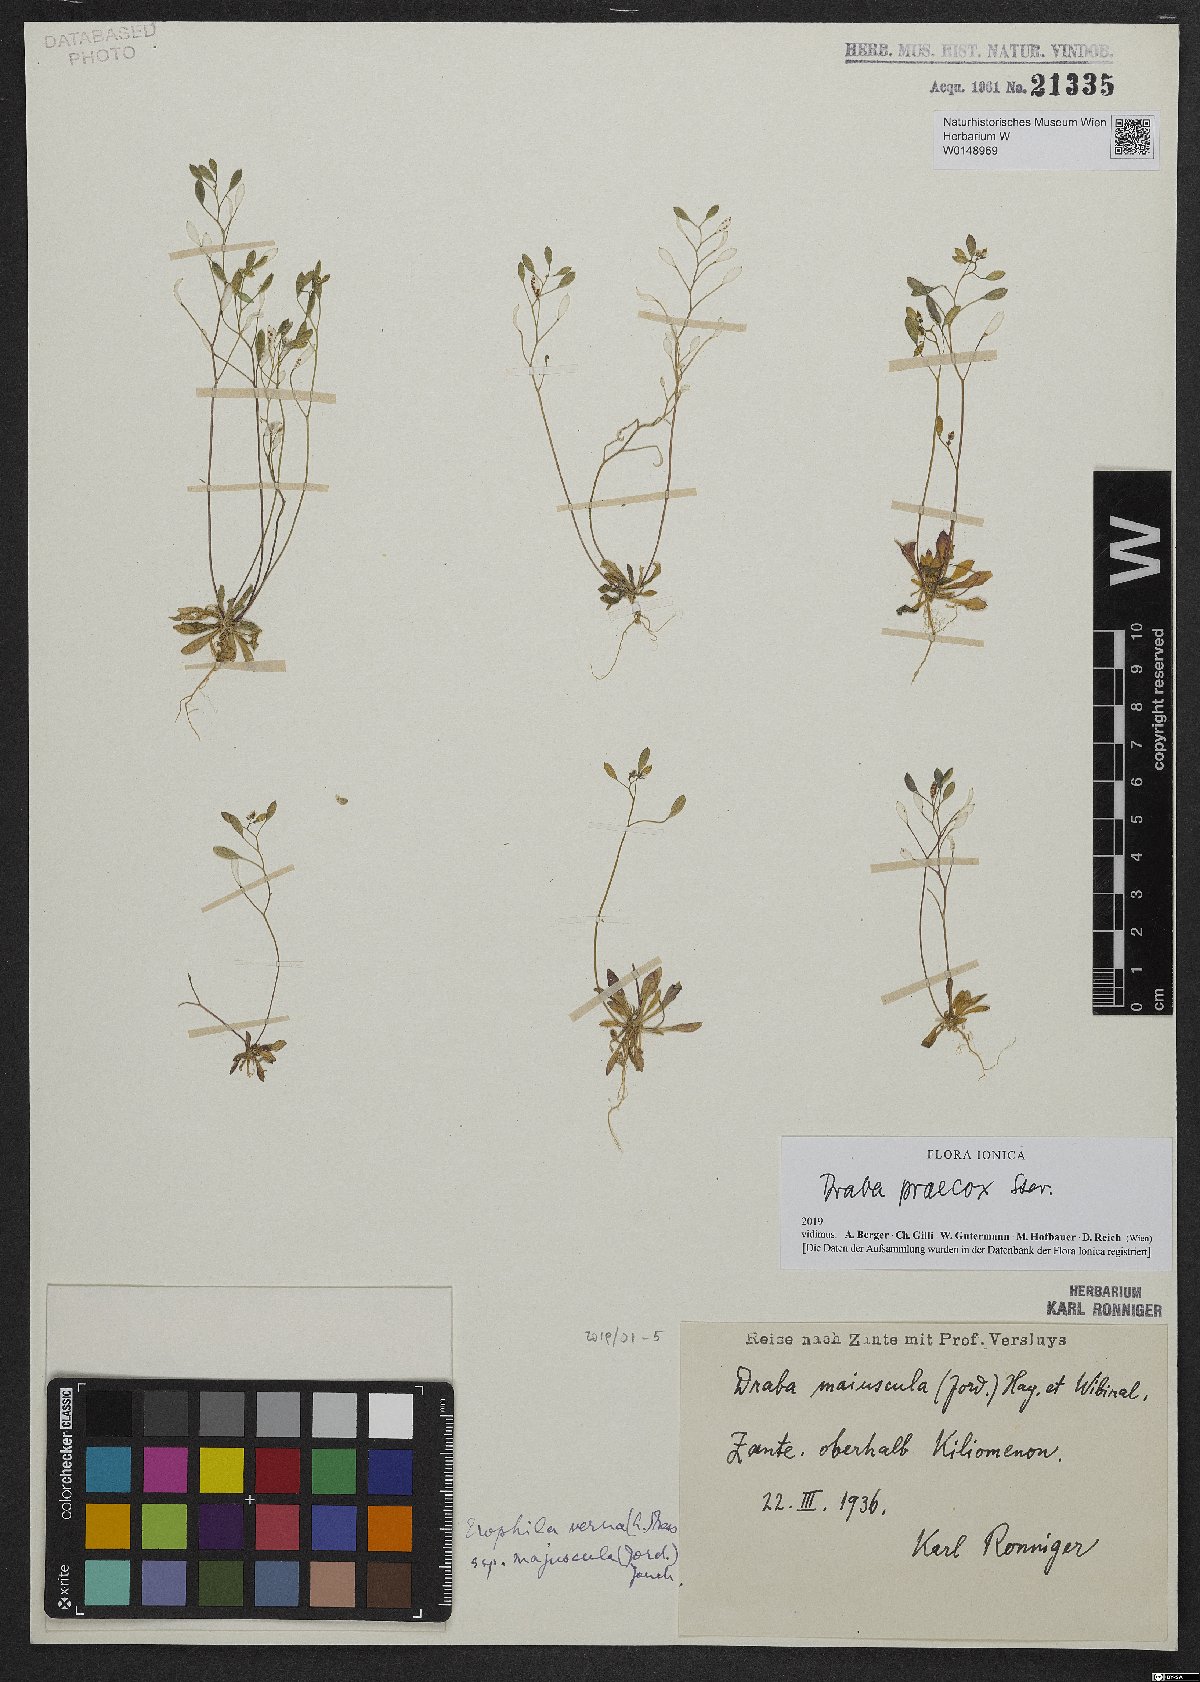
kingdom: Plantae
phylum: Tracheophyta
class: Magnoliopsida
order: Brassicales
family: Brassicaceae
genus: Draba
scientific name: Draba verna
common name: Spring draba
